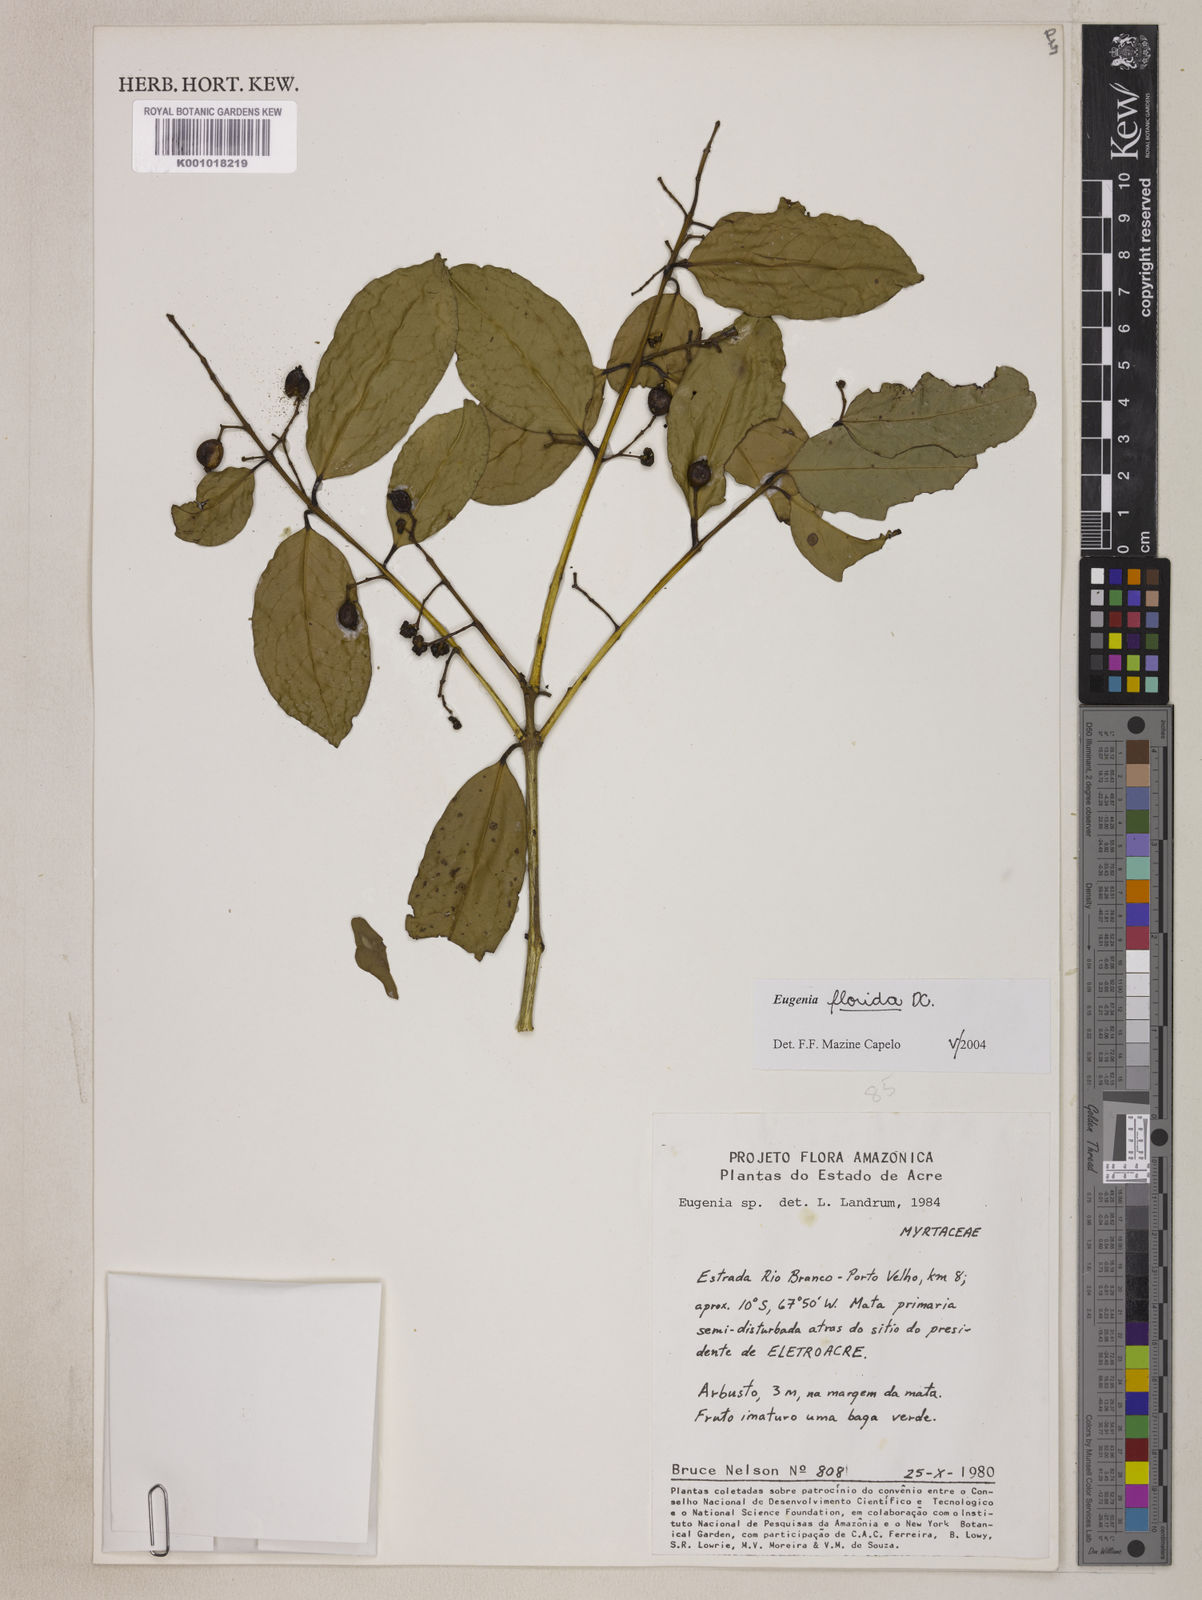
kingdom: Plantae
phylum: Tracheophyta
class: Magnoliopsida
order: Myrtales
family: Myrtaceae
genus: Eugenia
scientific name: Eugenia florida
